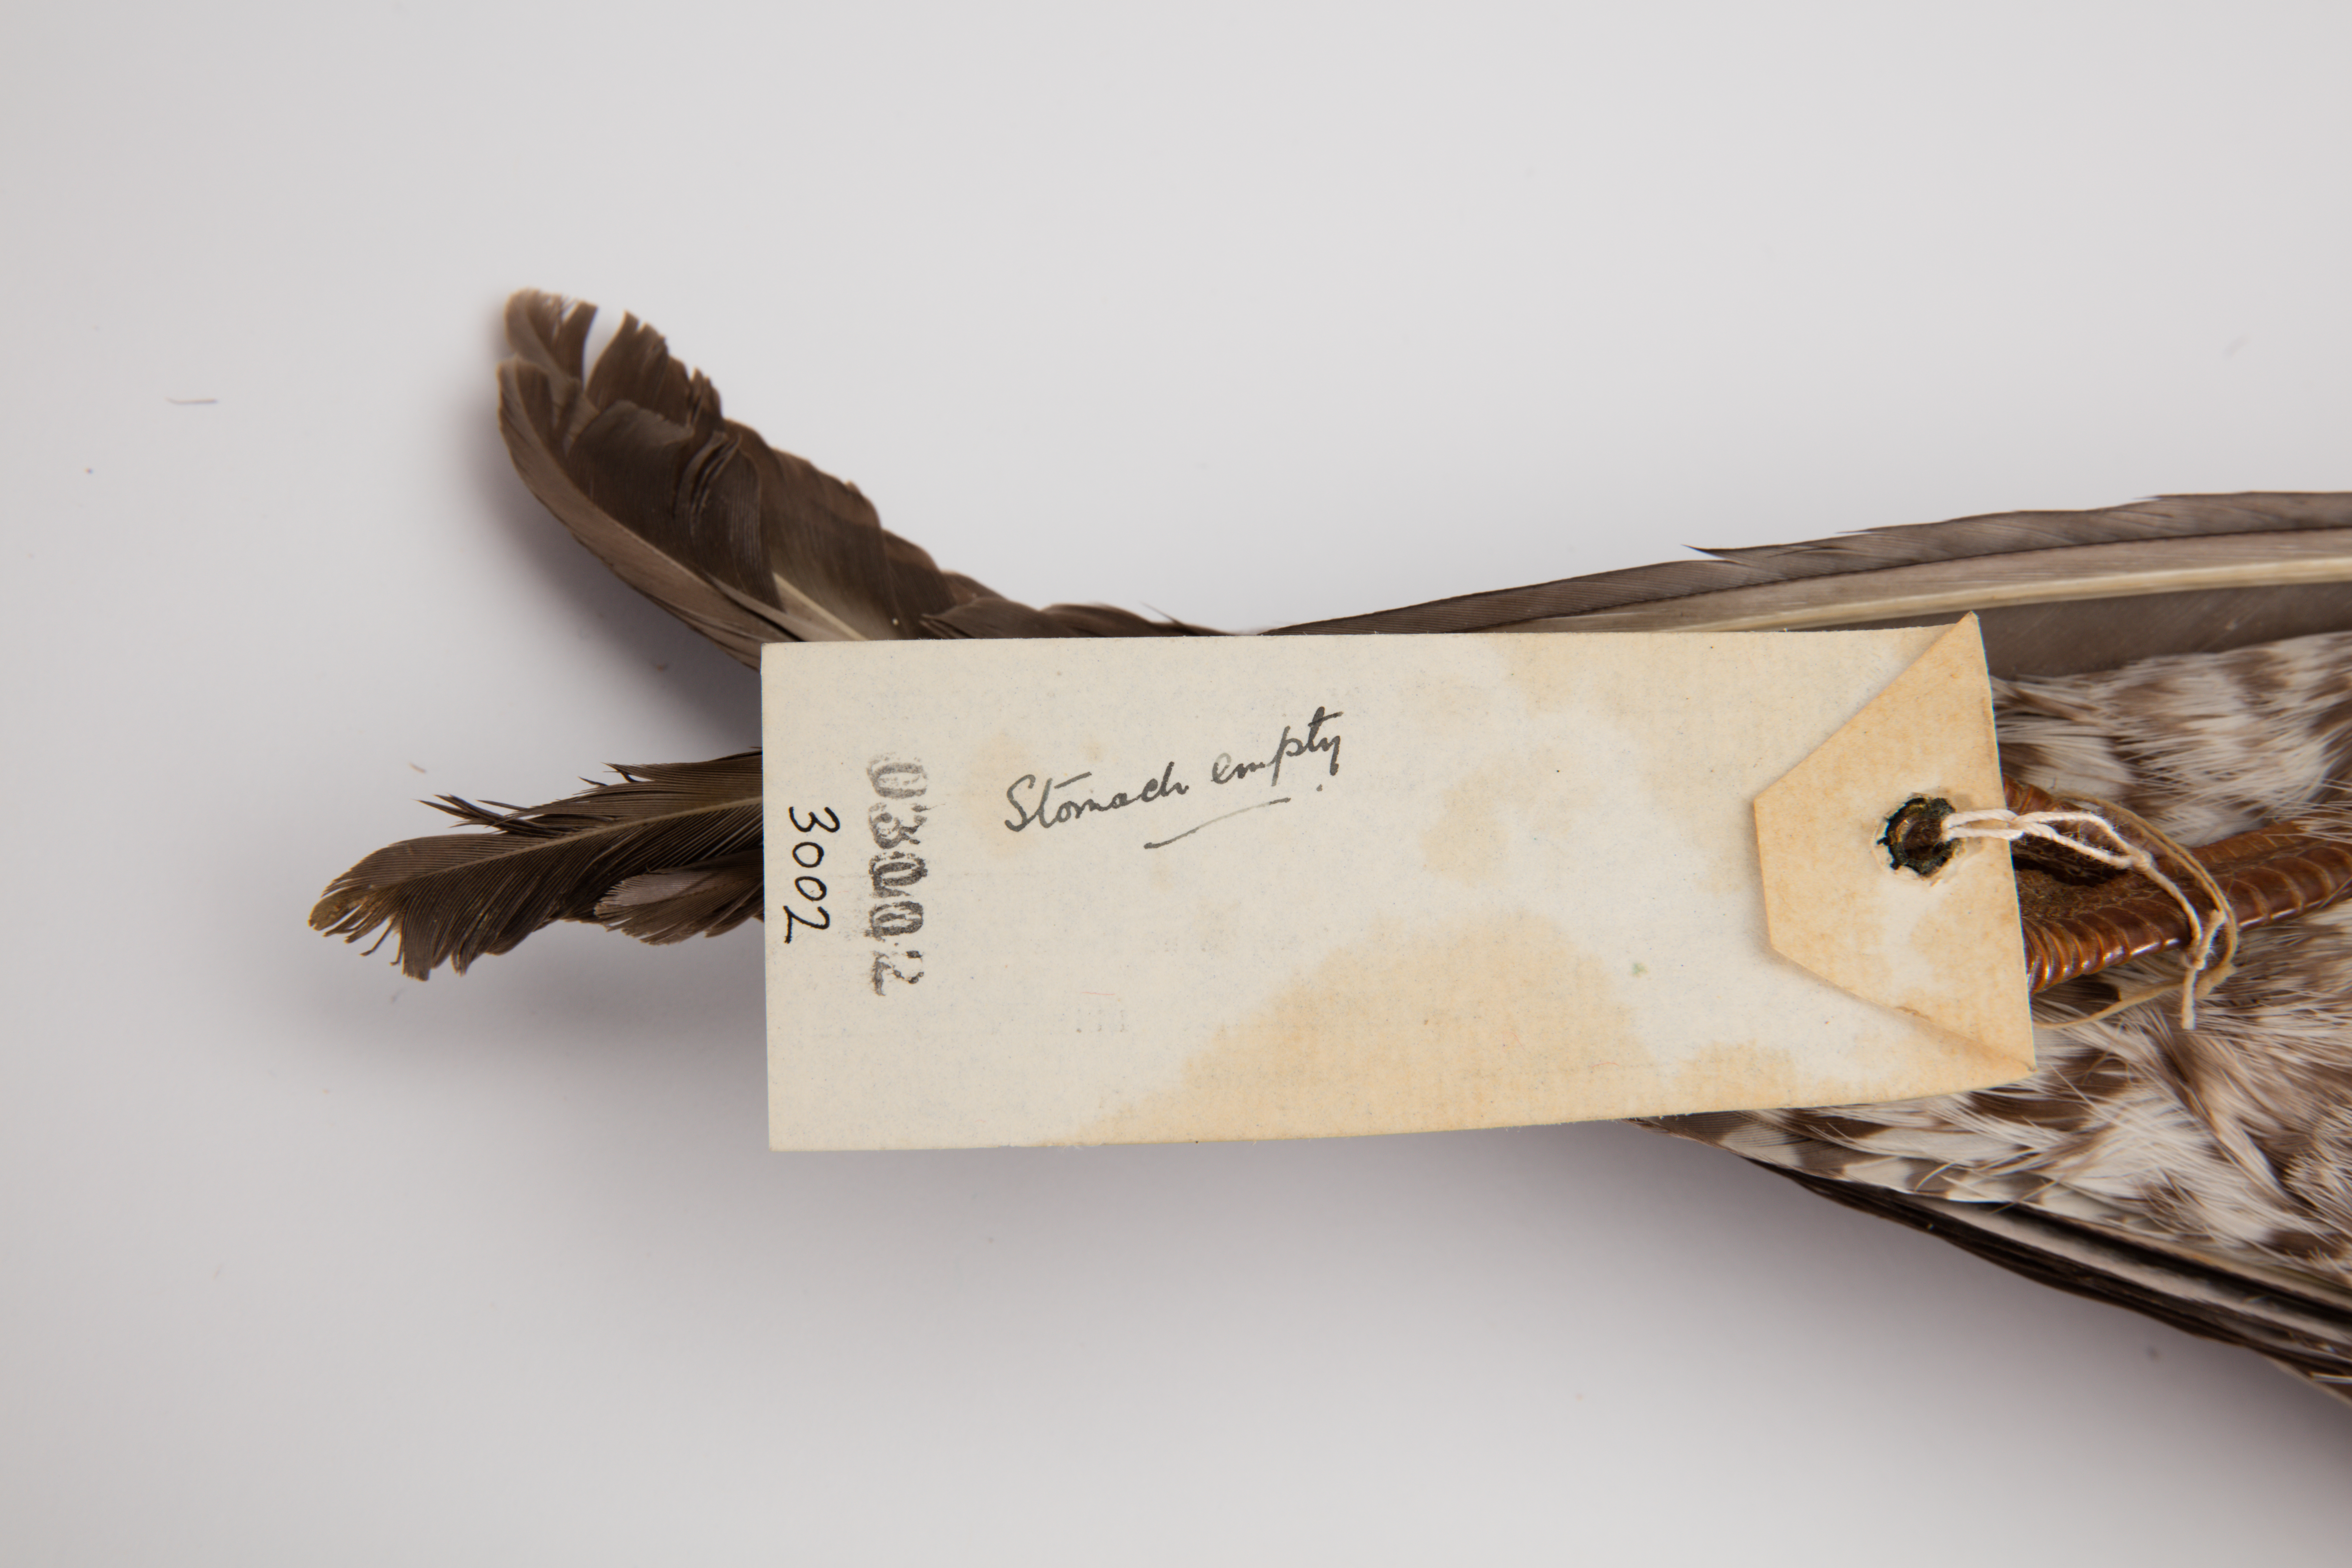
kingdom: Animalia
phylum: Chordata
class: Aves
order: Charadriiformes
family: Laridae
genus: Larus
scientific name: Larus dominicanus
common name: Kelp gull
